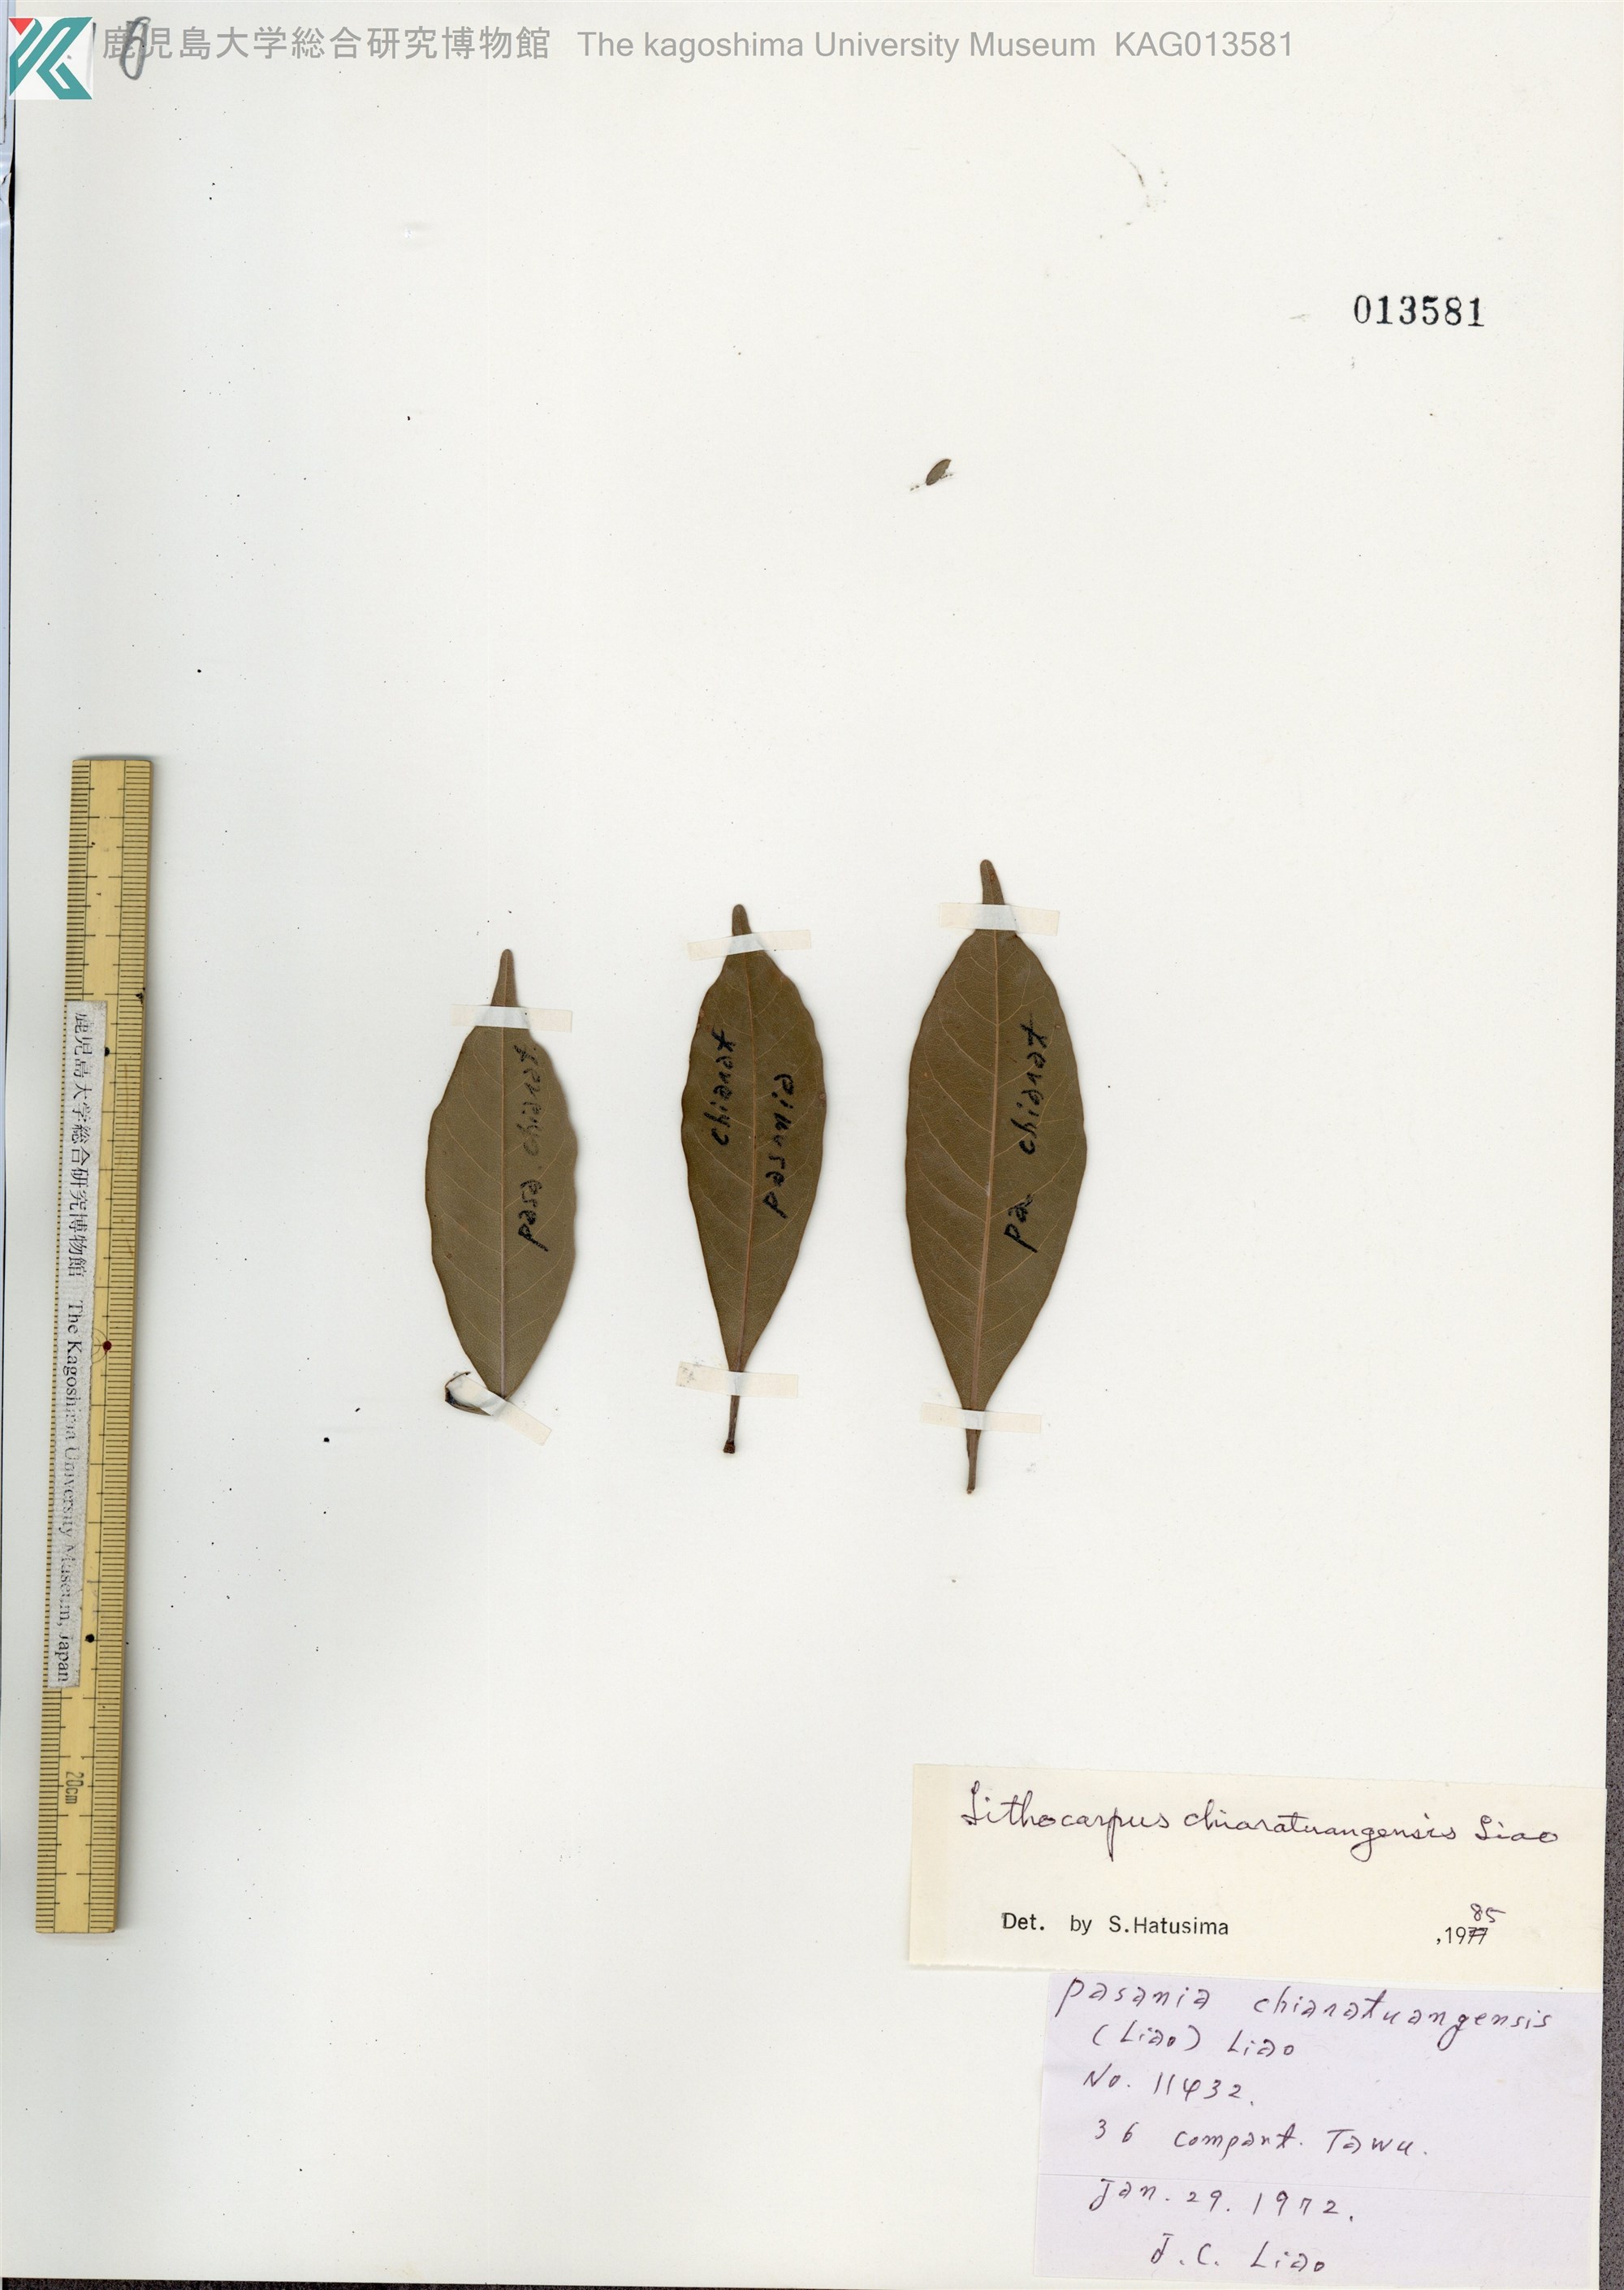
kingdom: Plantae
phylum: Tracheophyta
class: Magnoliopsida
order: Fagales
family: Fagaceae
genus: Lithocarpus
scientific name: Lithocarpus harlandii
